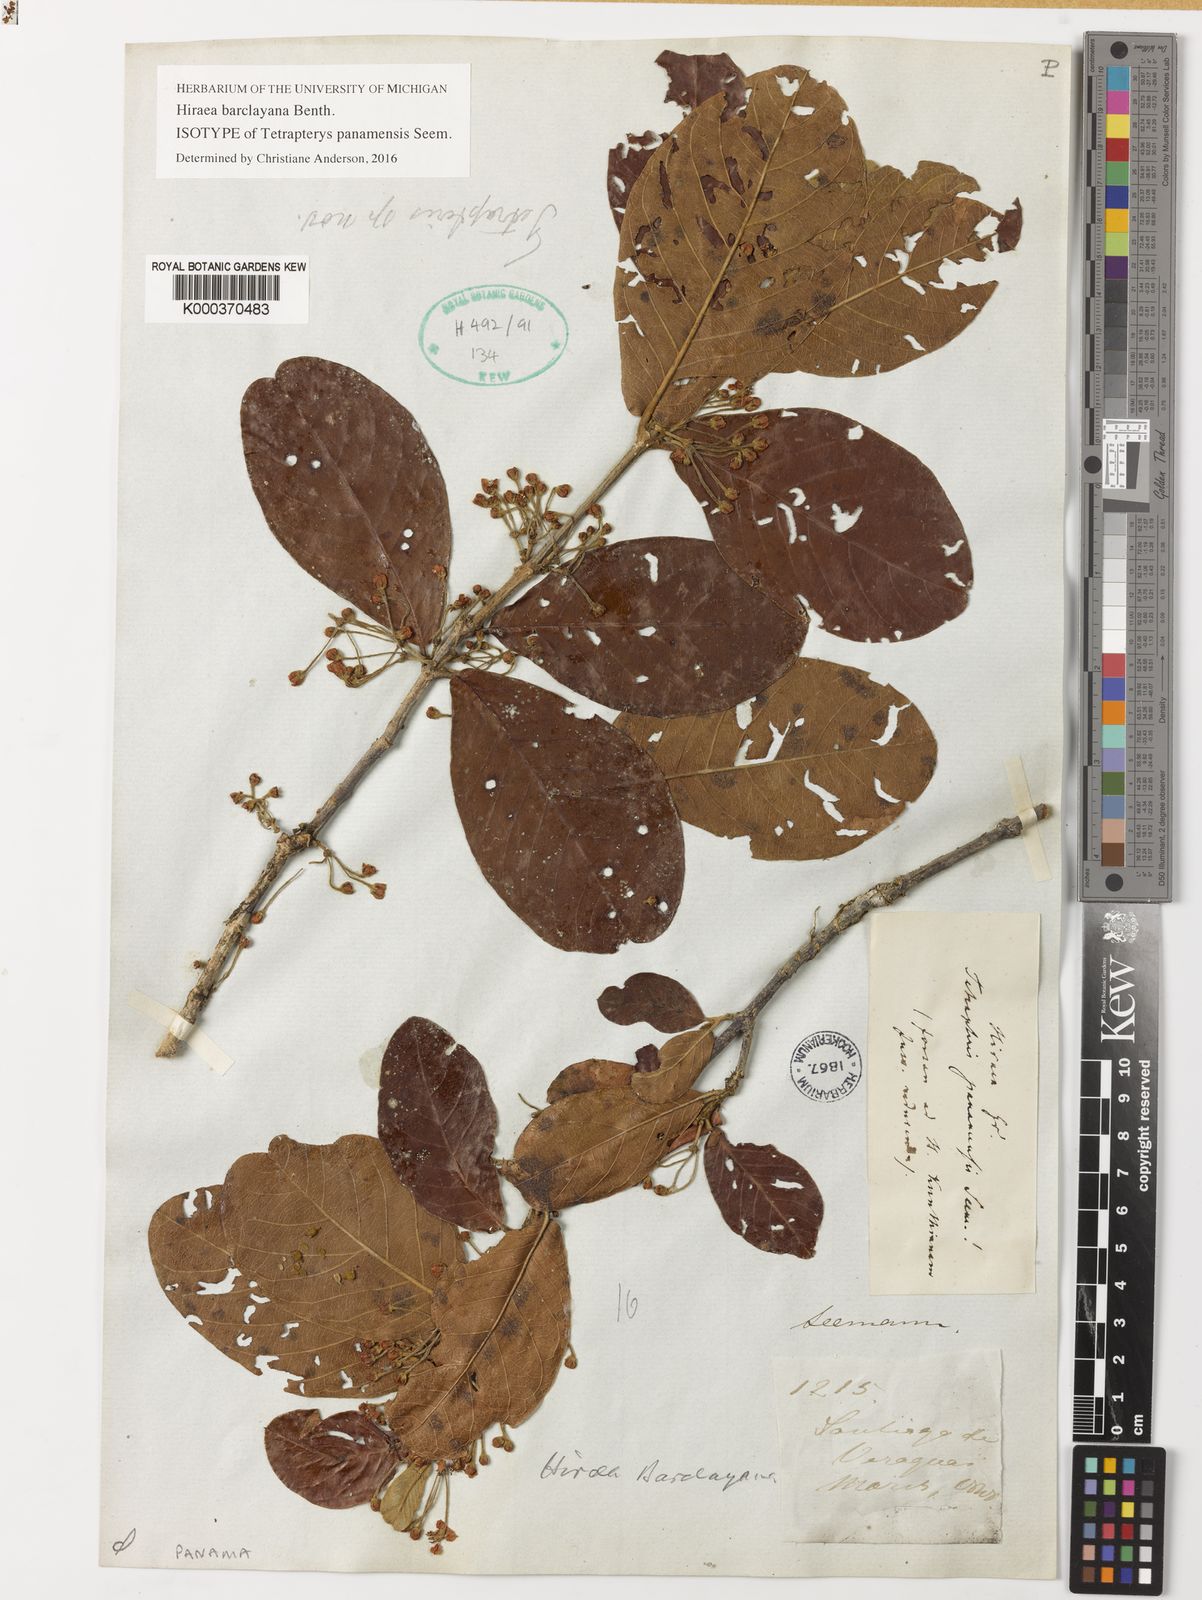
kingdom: Plantae
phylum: Tracheophyta
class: Magnoliopsida
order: Malpighiales
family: Malpighiaceae
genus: Hiraea
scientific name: Hiraea barclayana
